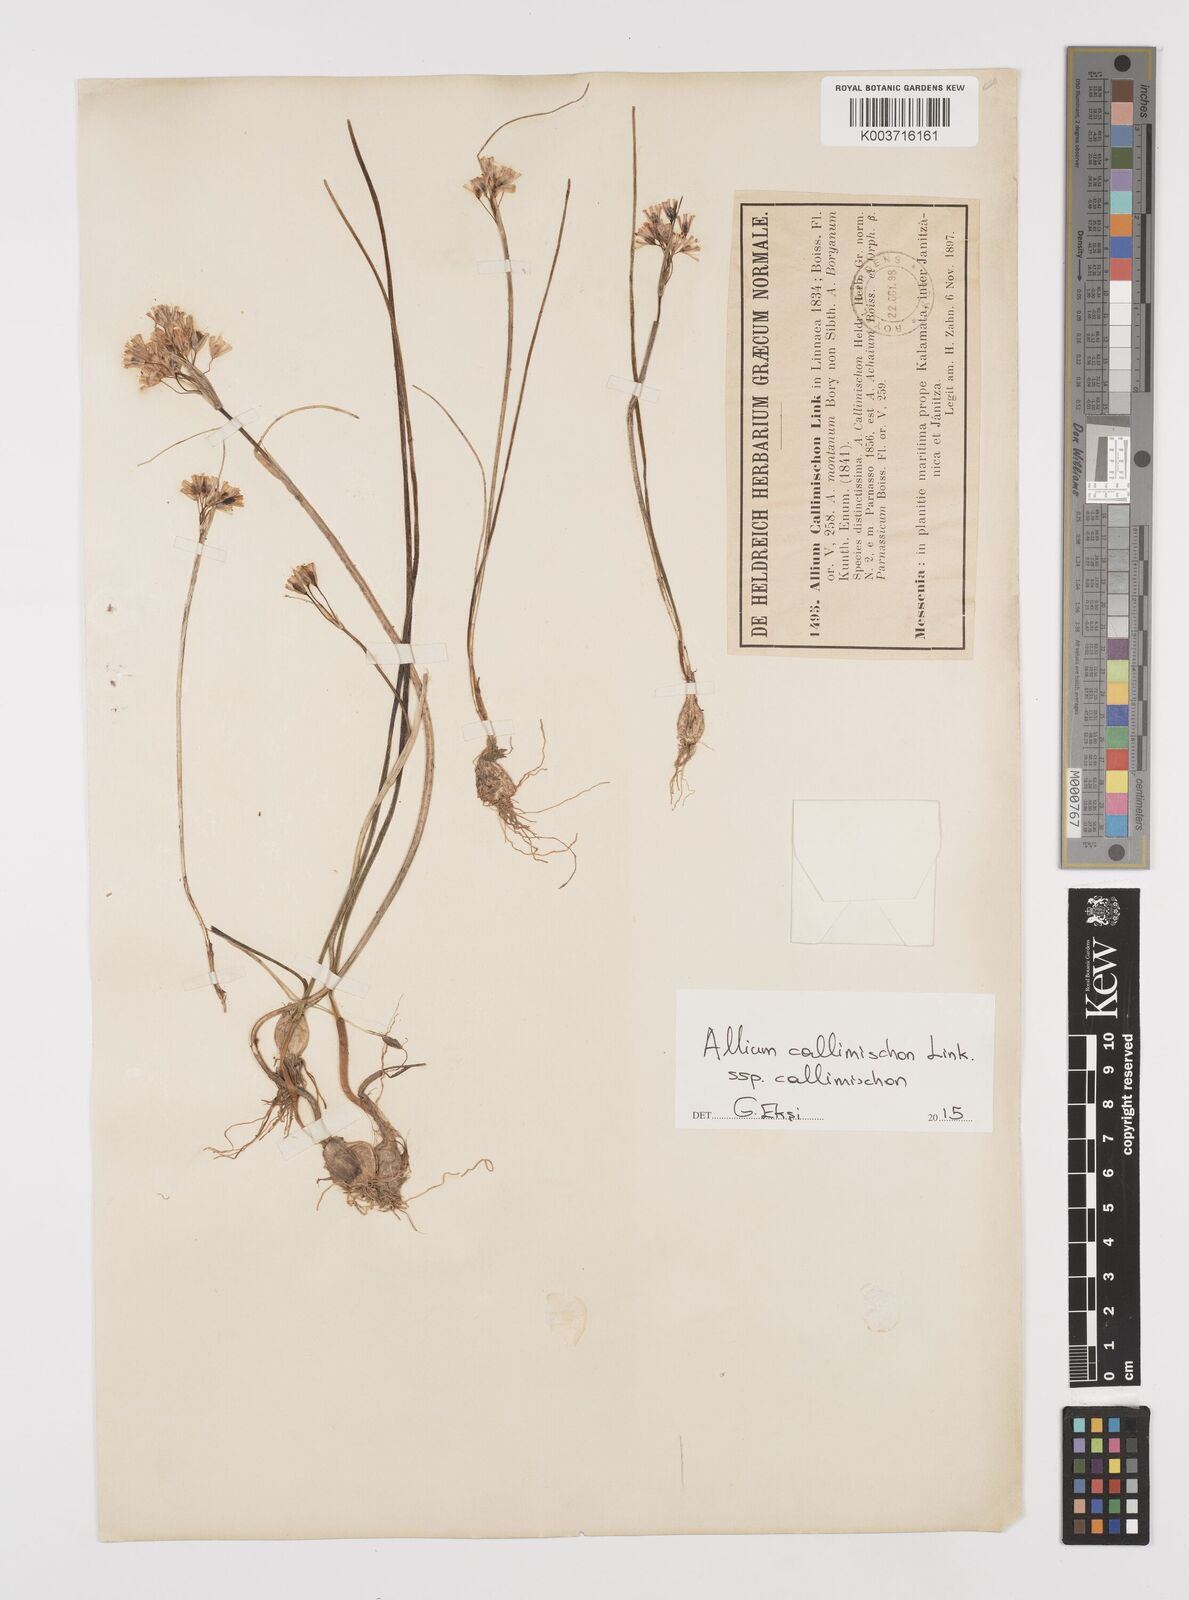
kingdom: Plantae
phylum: Tracheophyta
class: Liliopsida
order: Asparagales
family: Amaryllidaceae
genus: Allium
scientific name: Allium callimischon
